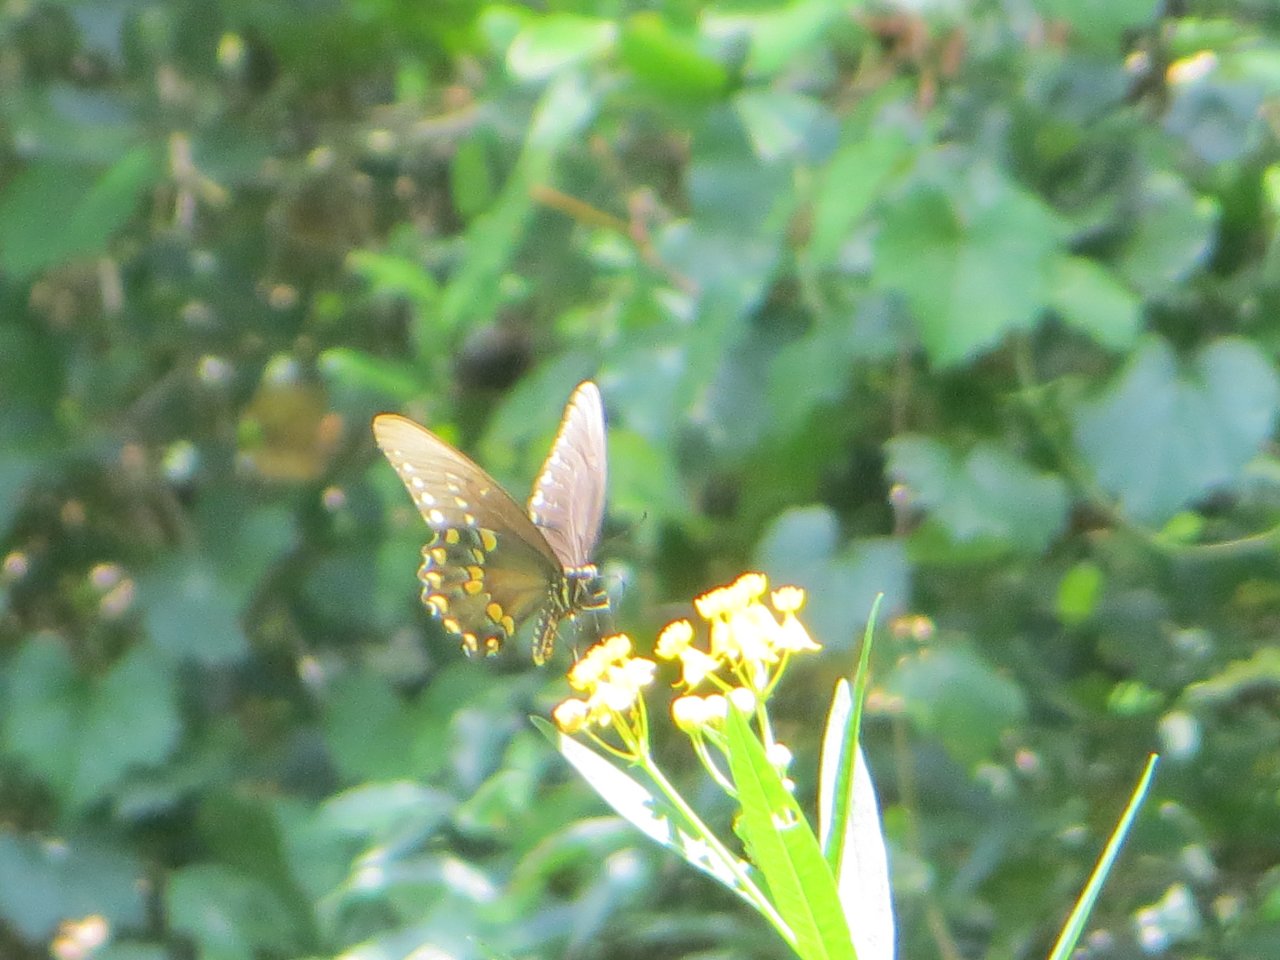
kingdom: Animalia
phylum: Arthropoda
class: Insecta
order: Lepidoptera
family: Papilionidae
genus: Pterourus
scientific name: Pterourus troilus
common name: Spicebush Swallowtail
